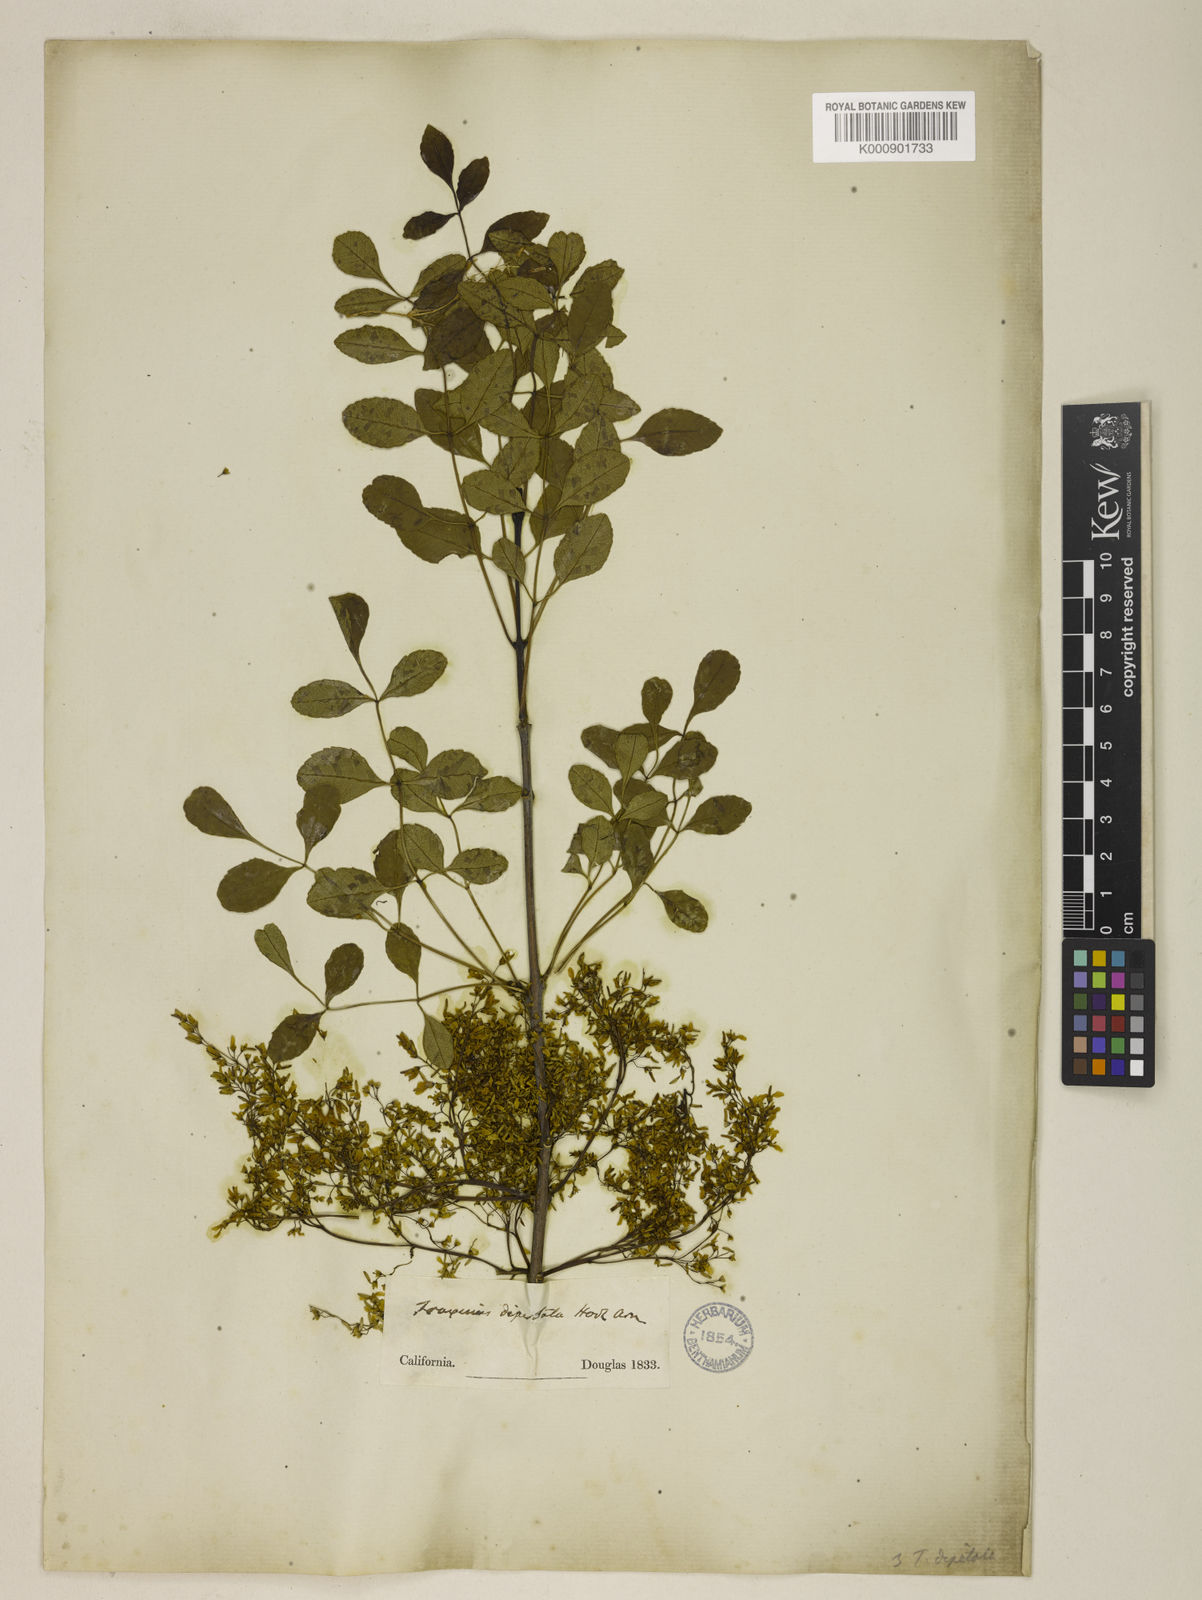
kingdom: Plantae
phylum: Tracheophyta
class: Magnoliopsida
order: Lamiales
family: Oleaceae
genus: Fraxinus
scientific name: Fraxinus dipetala
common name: California ash
